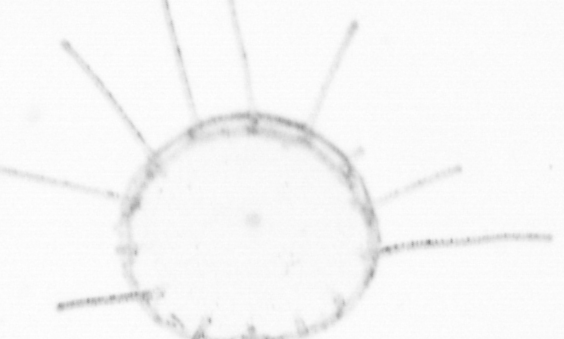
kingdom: Animalia
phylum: Cnidaria
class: Hydrozoa
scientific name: Hydrozoa
